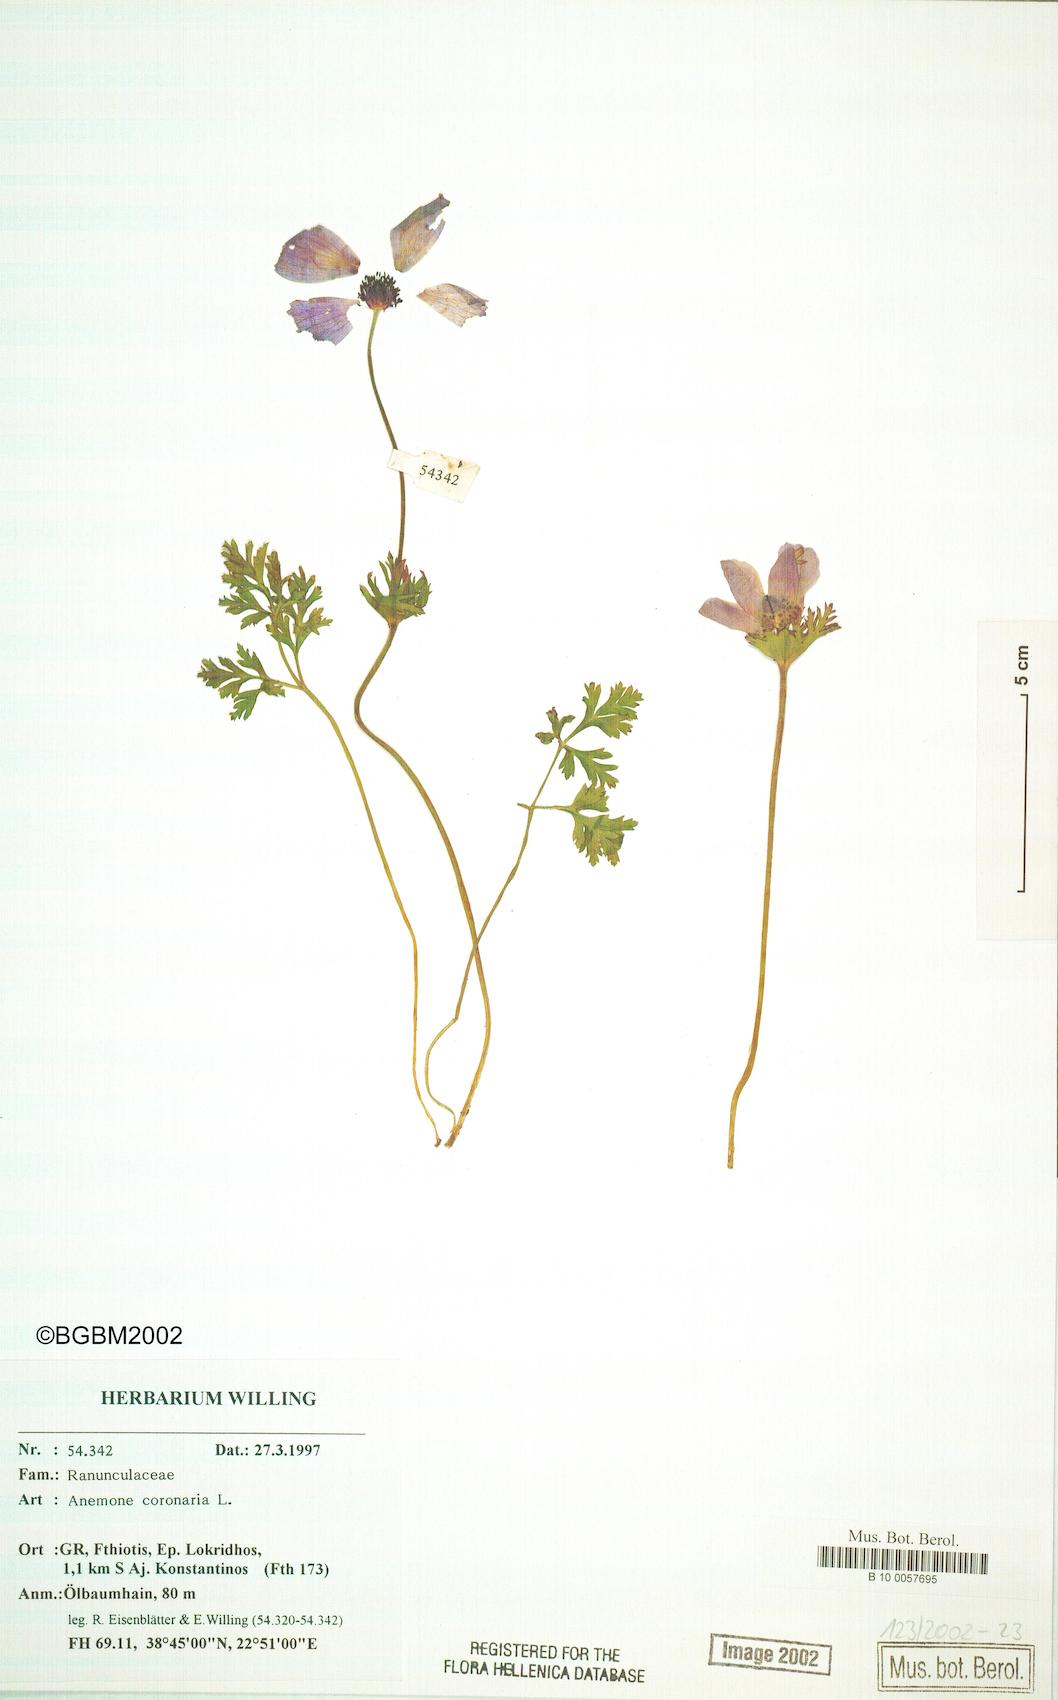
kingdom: Plantae
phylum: Tracheophyta
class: Magnoliopsida
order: Ranunculales
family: Ranunculaceae
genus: Anemone
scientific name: Anemone coronaria
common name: Poppy anemone
